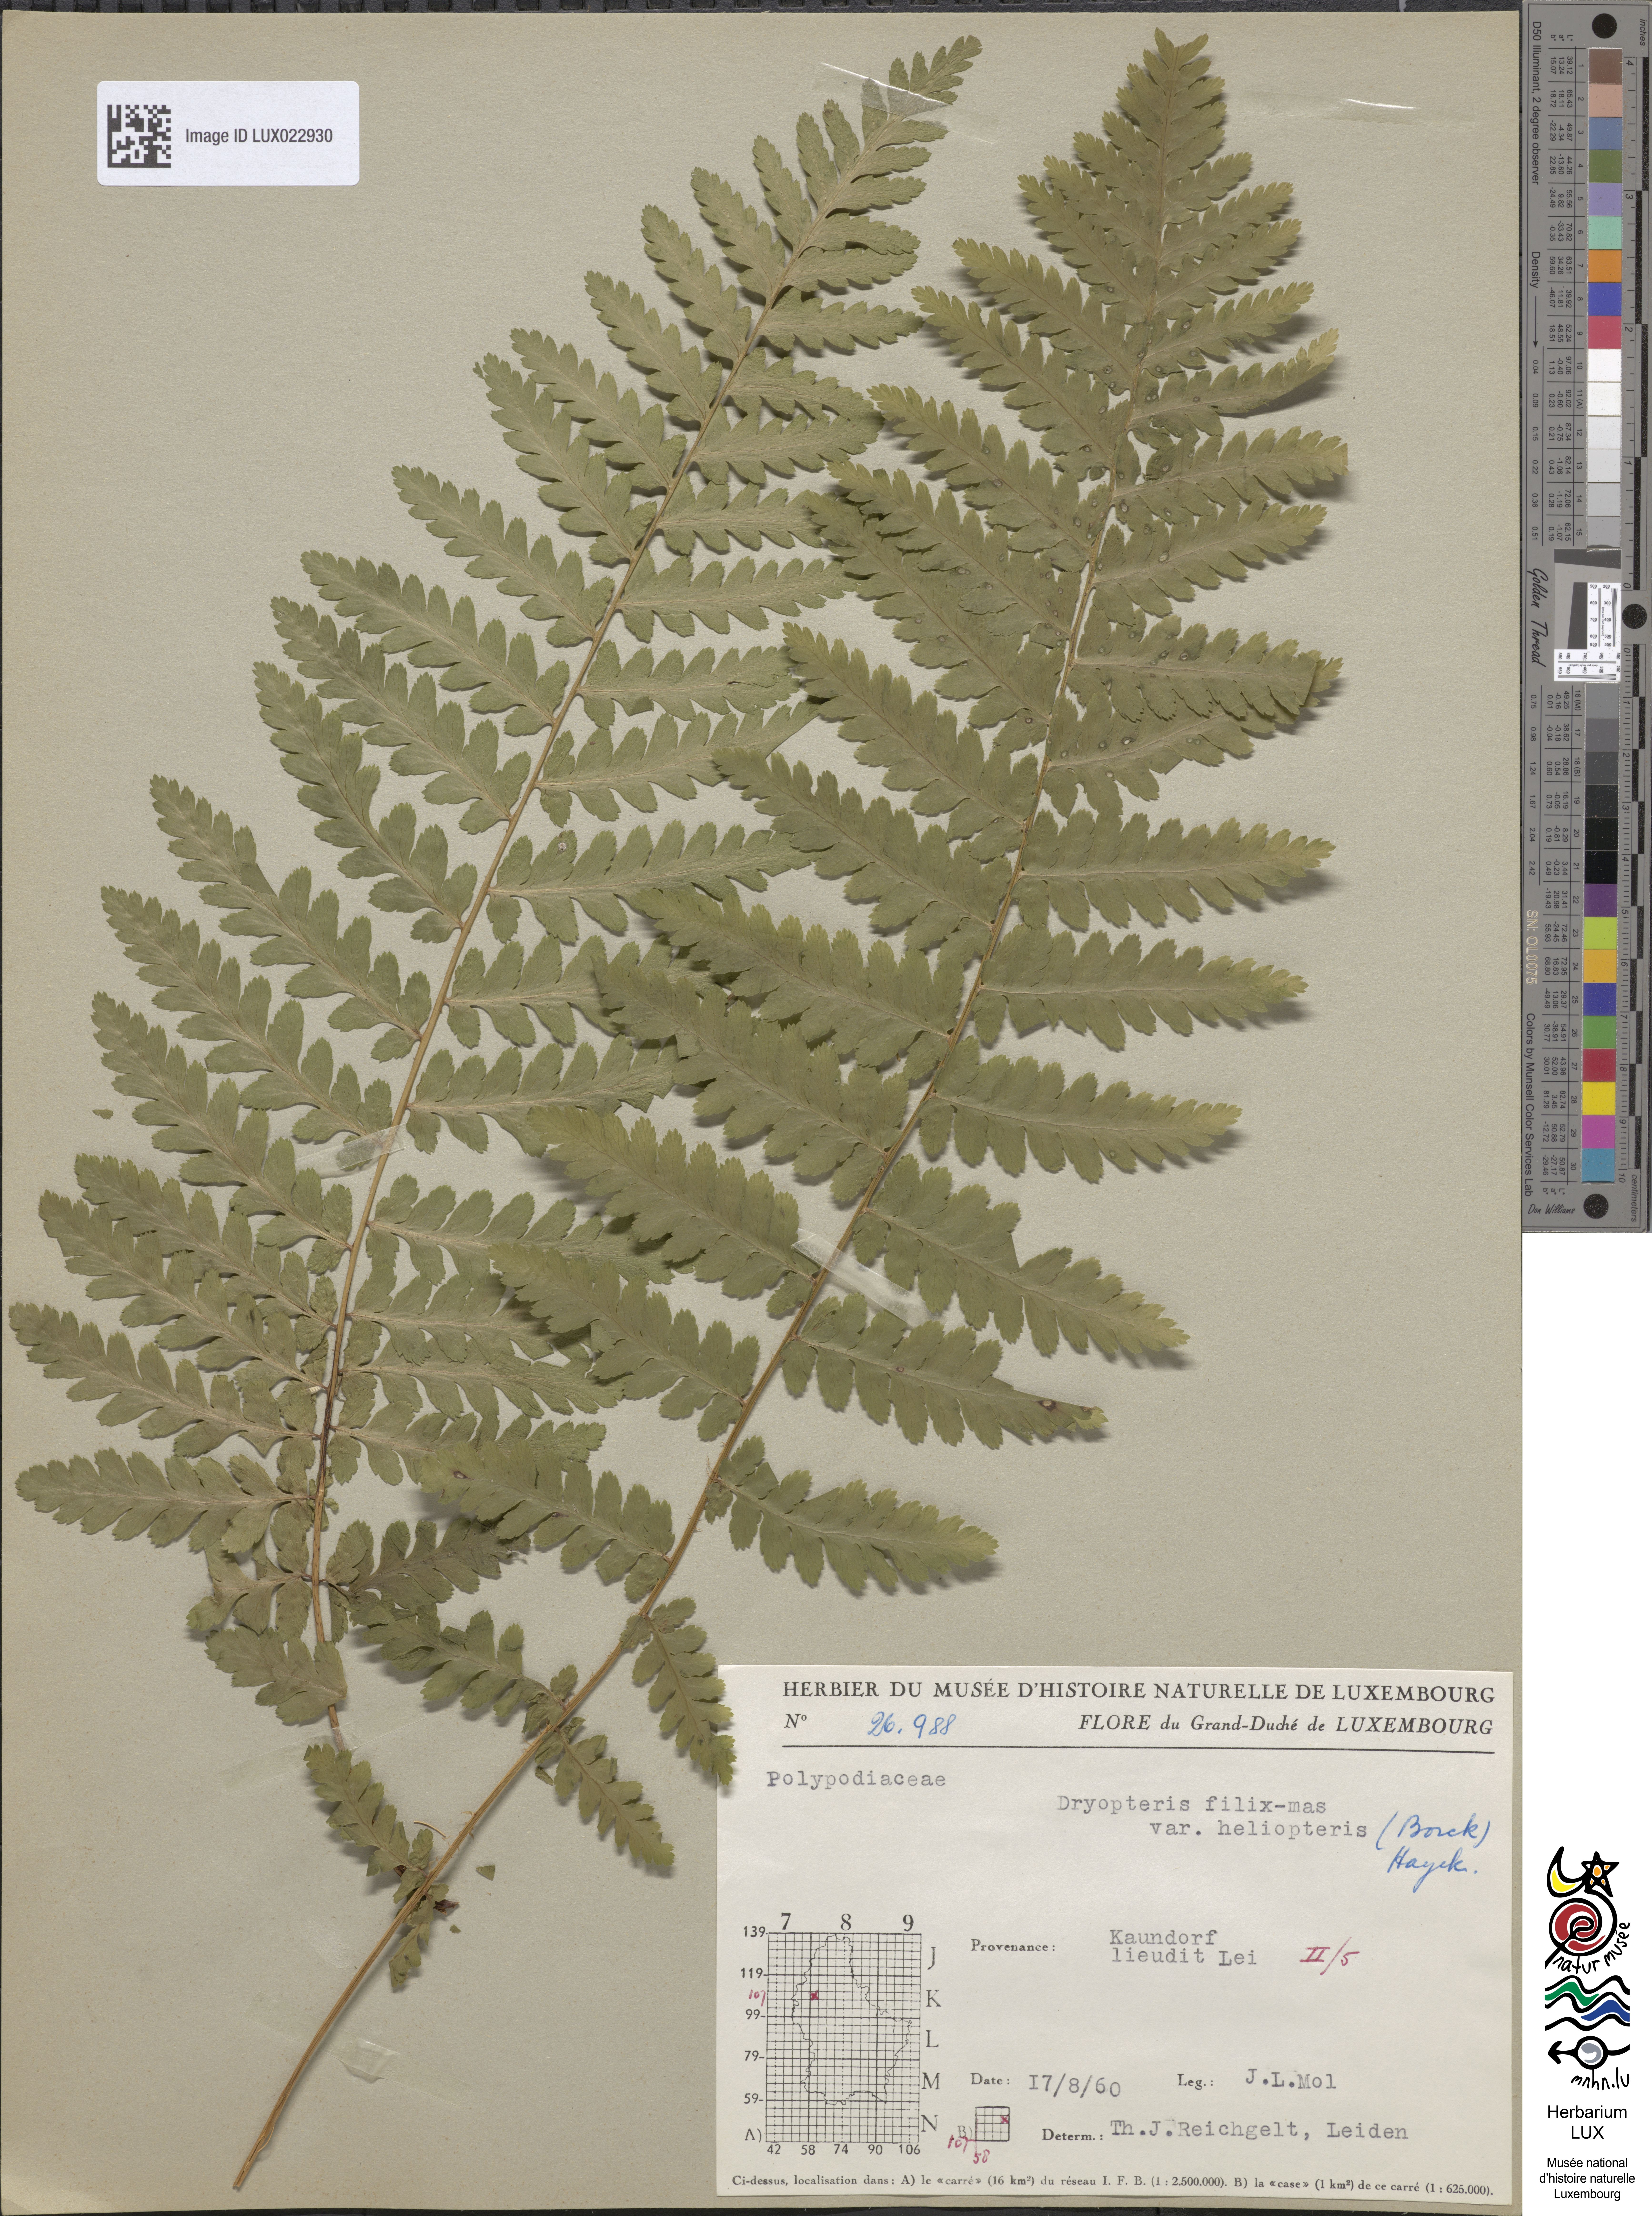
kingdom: Plantae
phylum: Tracheophyta
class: Polypodiopsida
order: Polypodiales
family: Dryopteridaceae
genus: Dryopteris
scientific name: Dryopteris filix-mas
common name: Male fern
